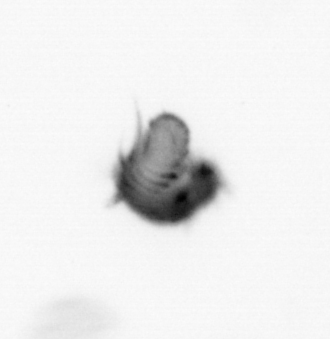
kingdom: Animalia
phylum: Annelida
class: Polychaeta
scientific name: Polychaeta
